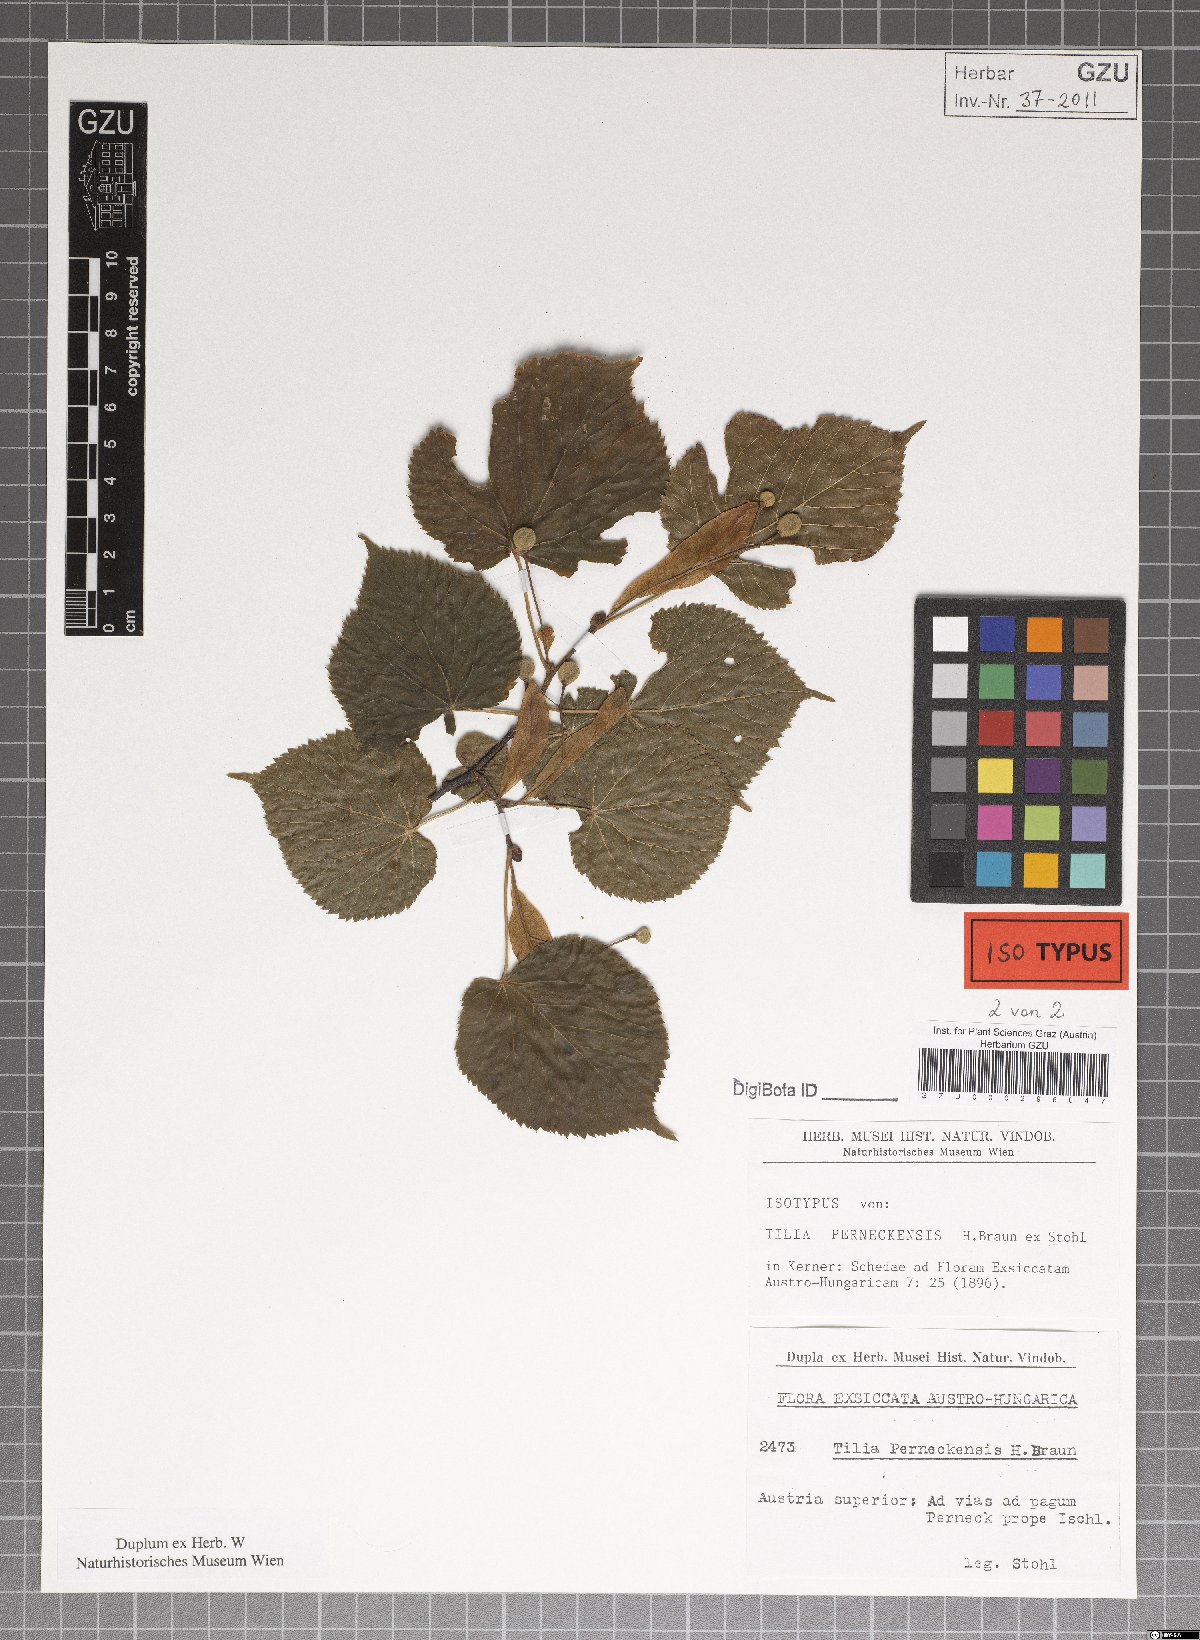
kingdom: Plantae
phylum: Tracheophyta
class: Magnoliopsida
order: Malvales
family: Malvaceae
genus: Tilia
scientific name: Tilia perneckensis
